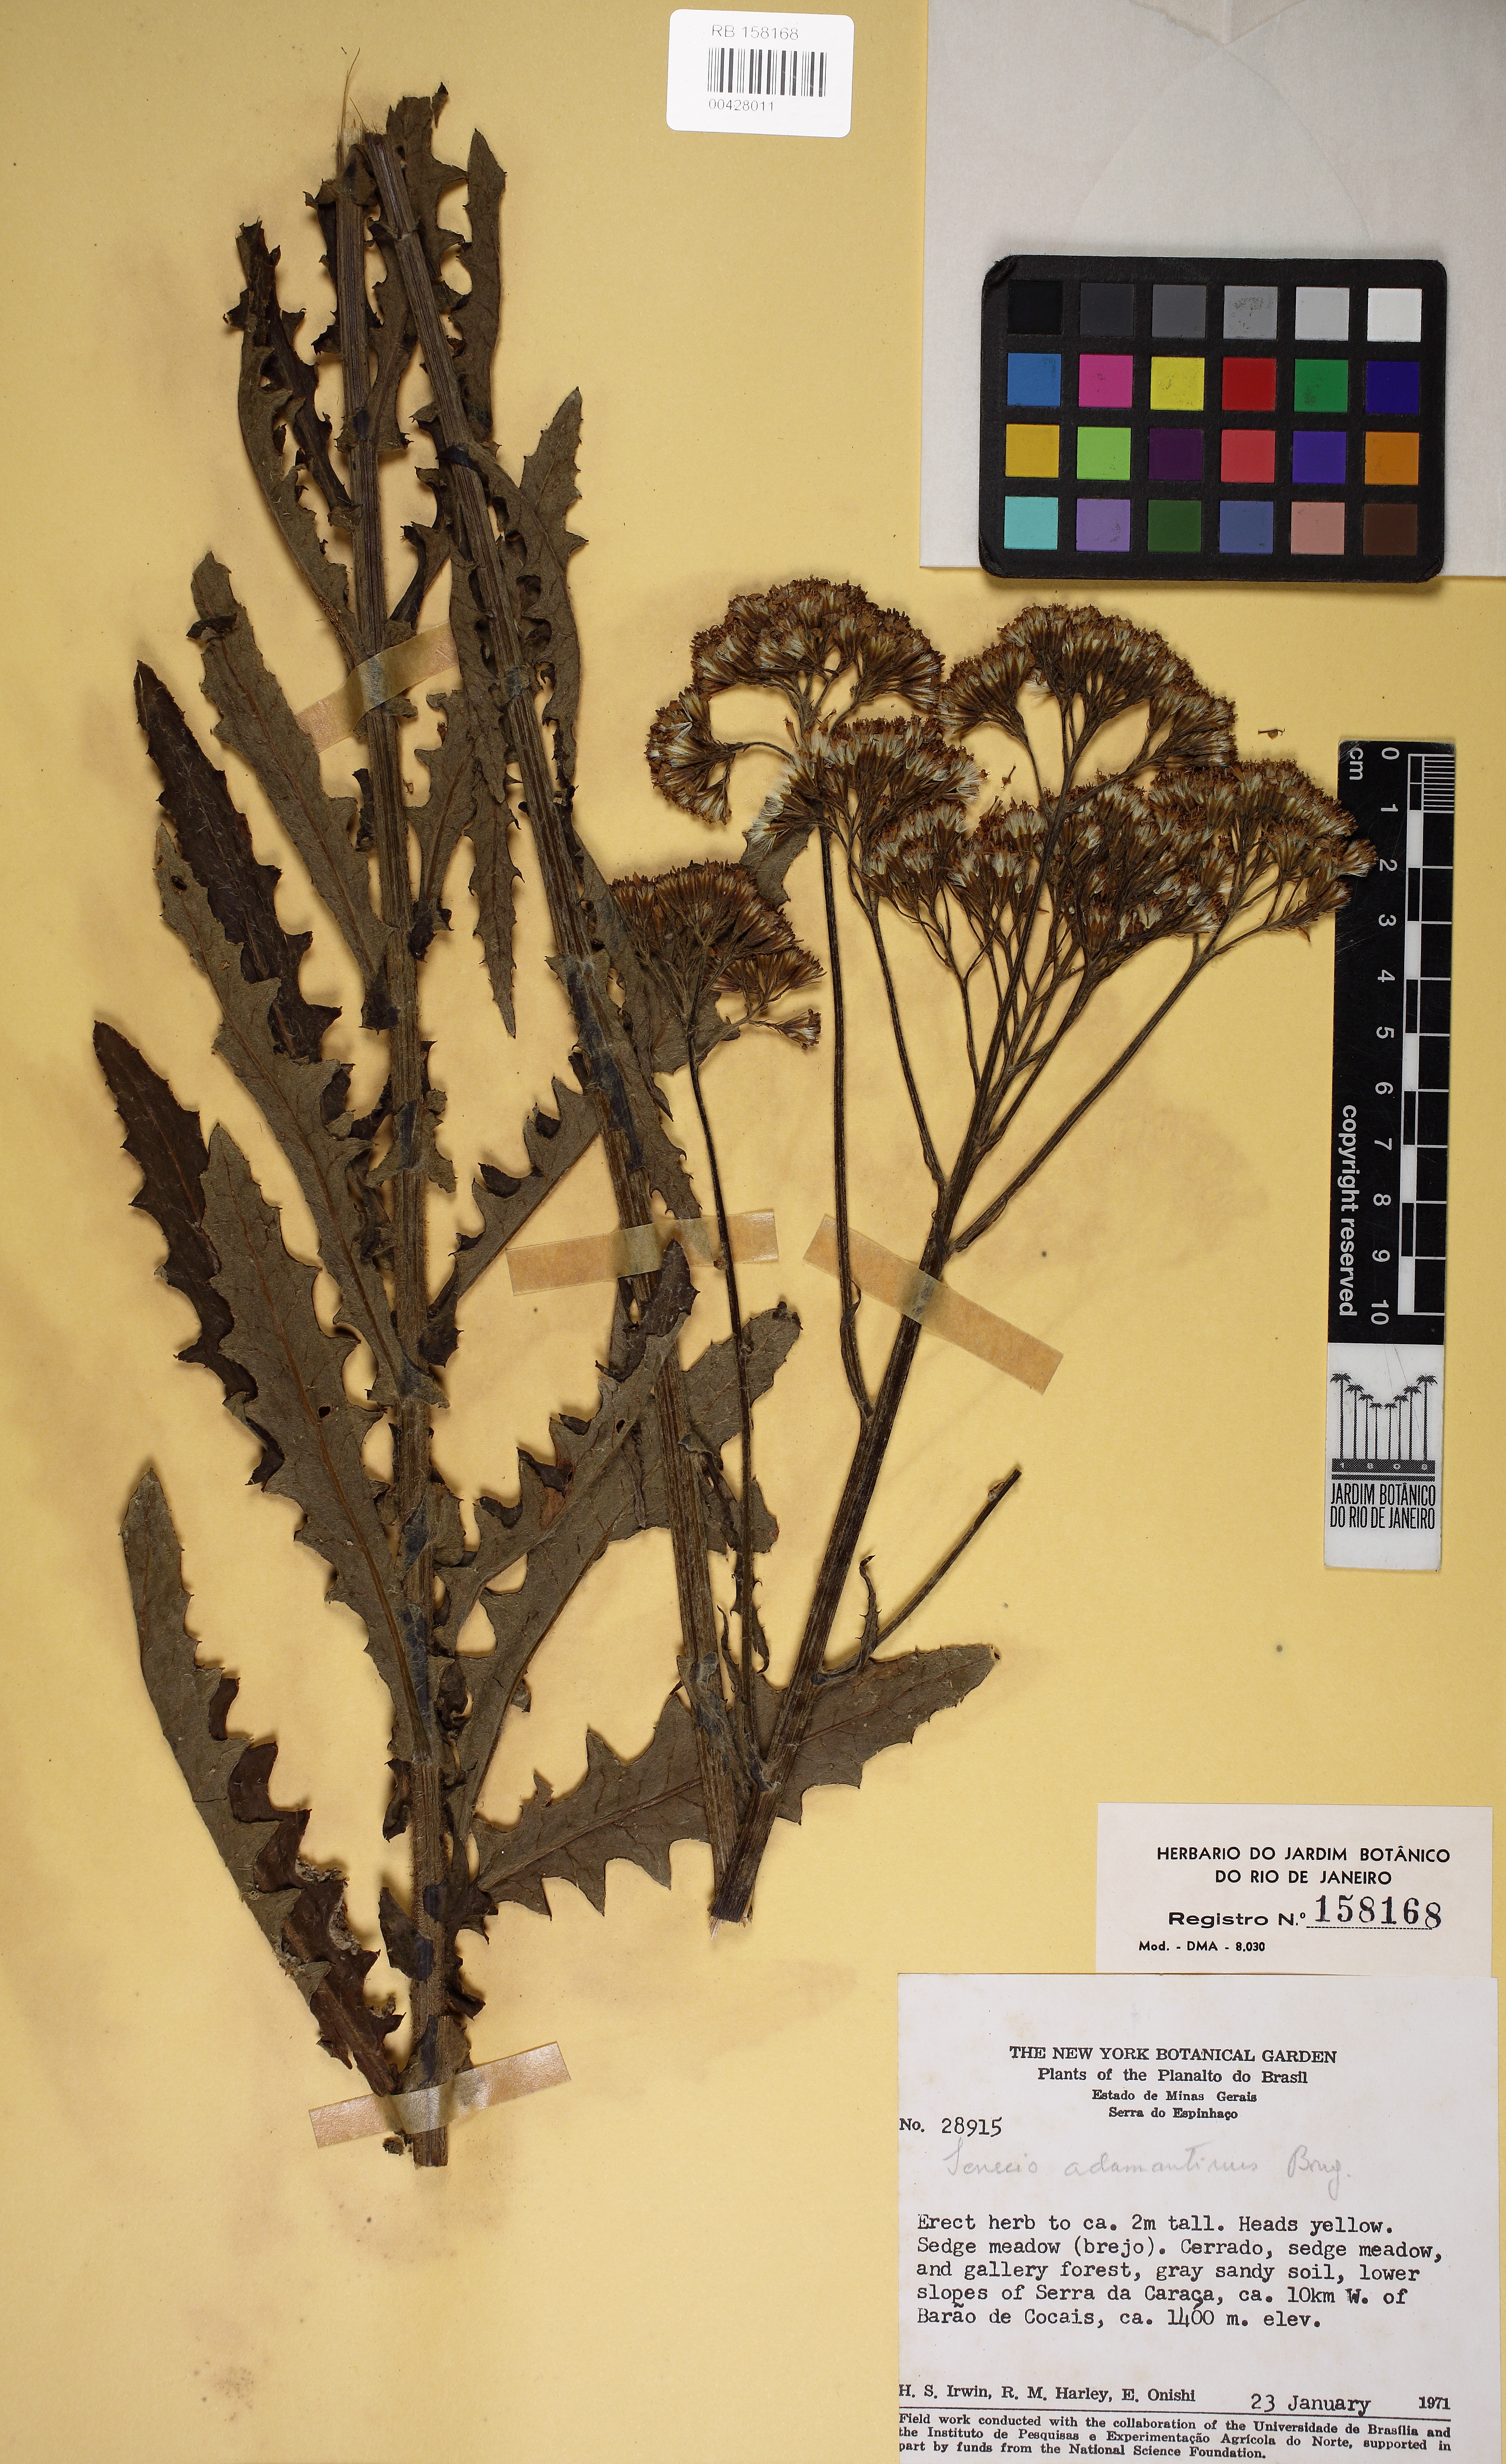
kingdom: Plantae
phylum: Tracheophyta
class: Magnoliopsida
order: Asterales
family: Asteraceae
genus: Senecio
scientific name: Senecio adamantinus
